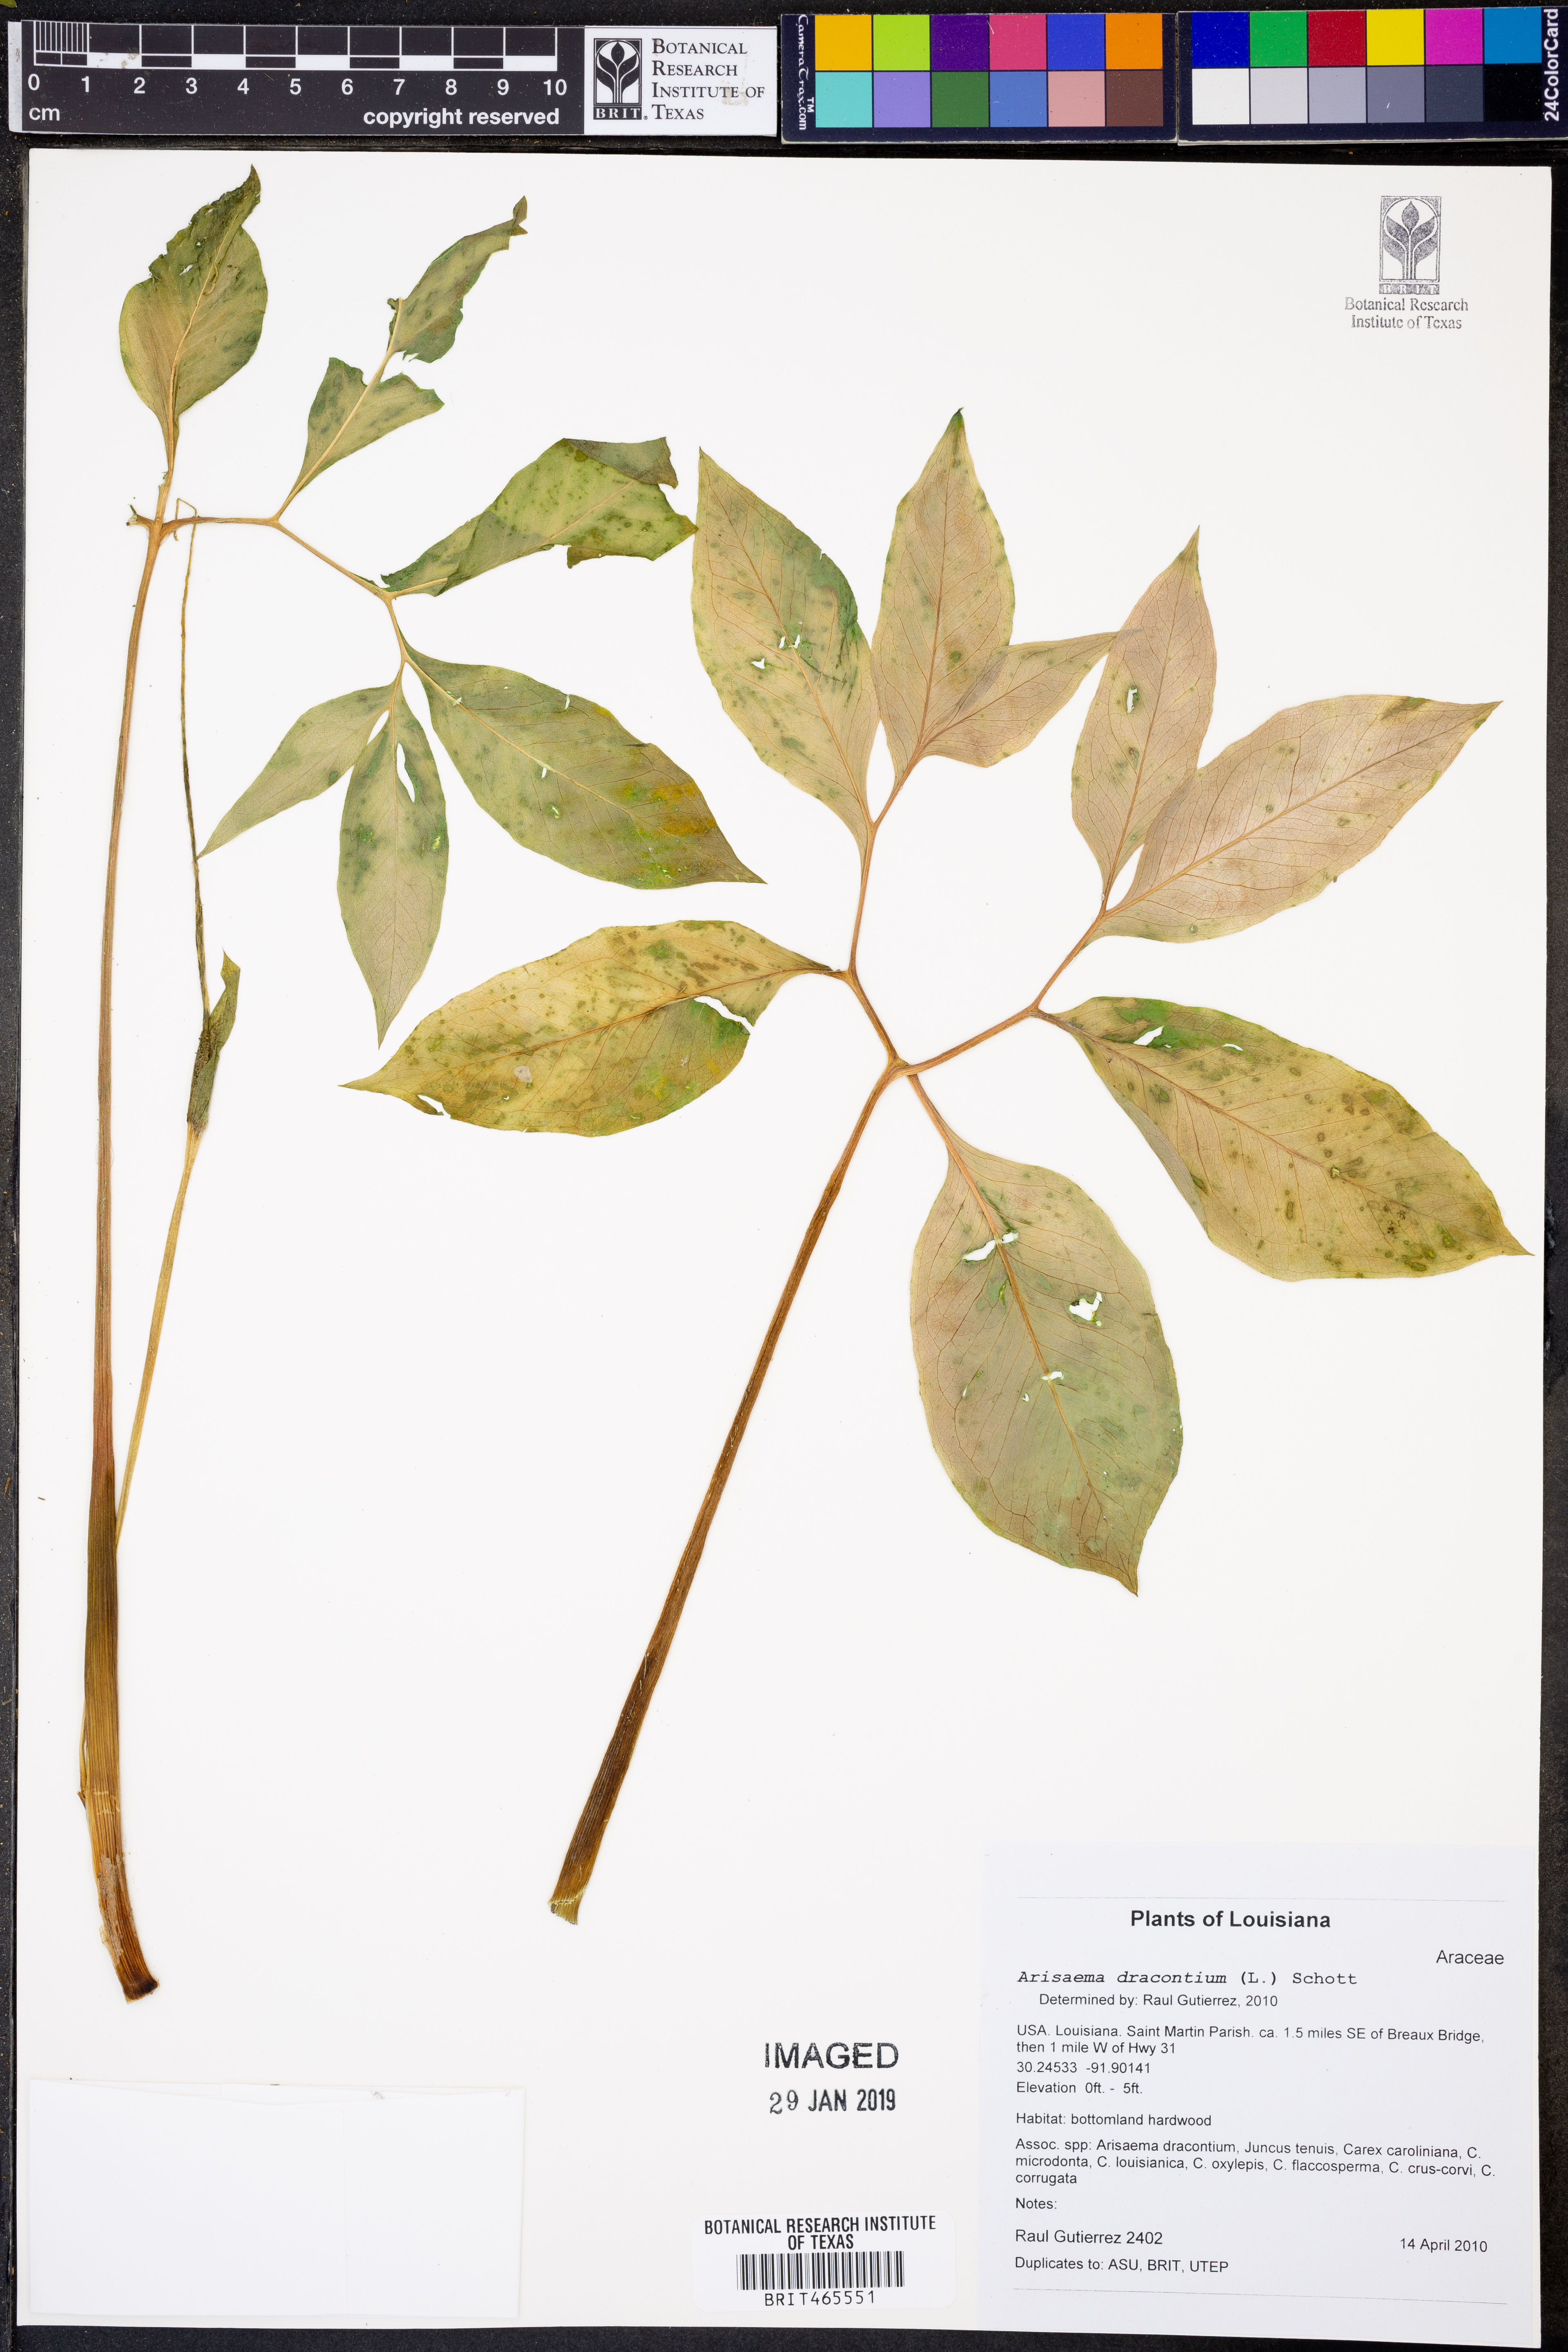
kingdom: Plantae
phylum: Tracheophyta
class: Liliopsida
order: Alismatales
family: Araceae
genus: Arisaema
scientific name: Arisaema dracontium
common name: Dragon-arum
